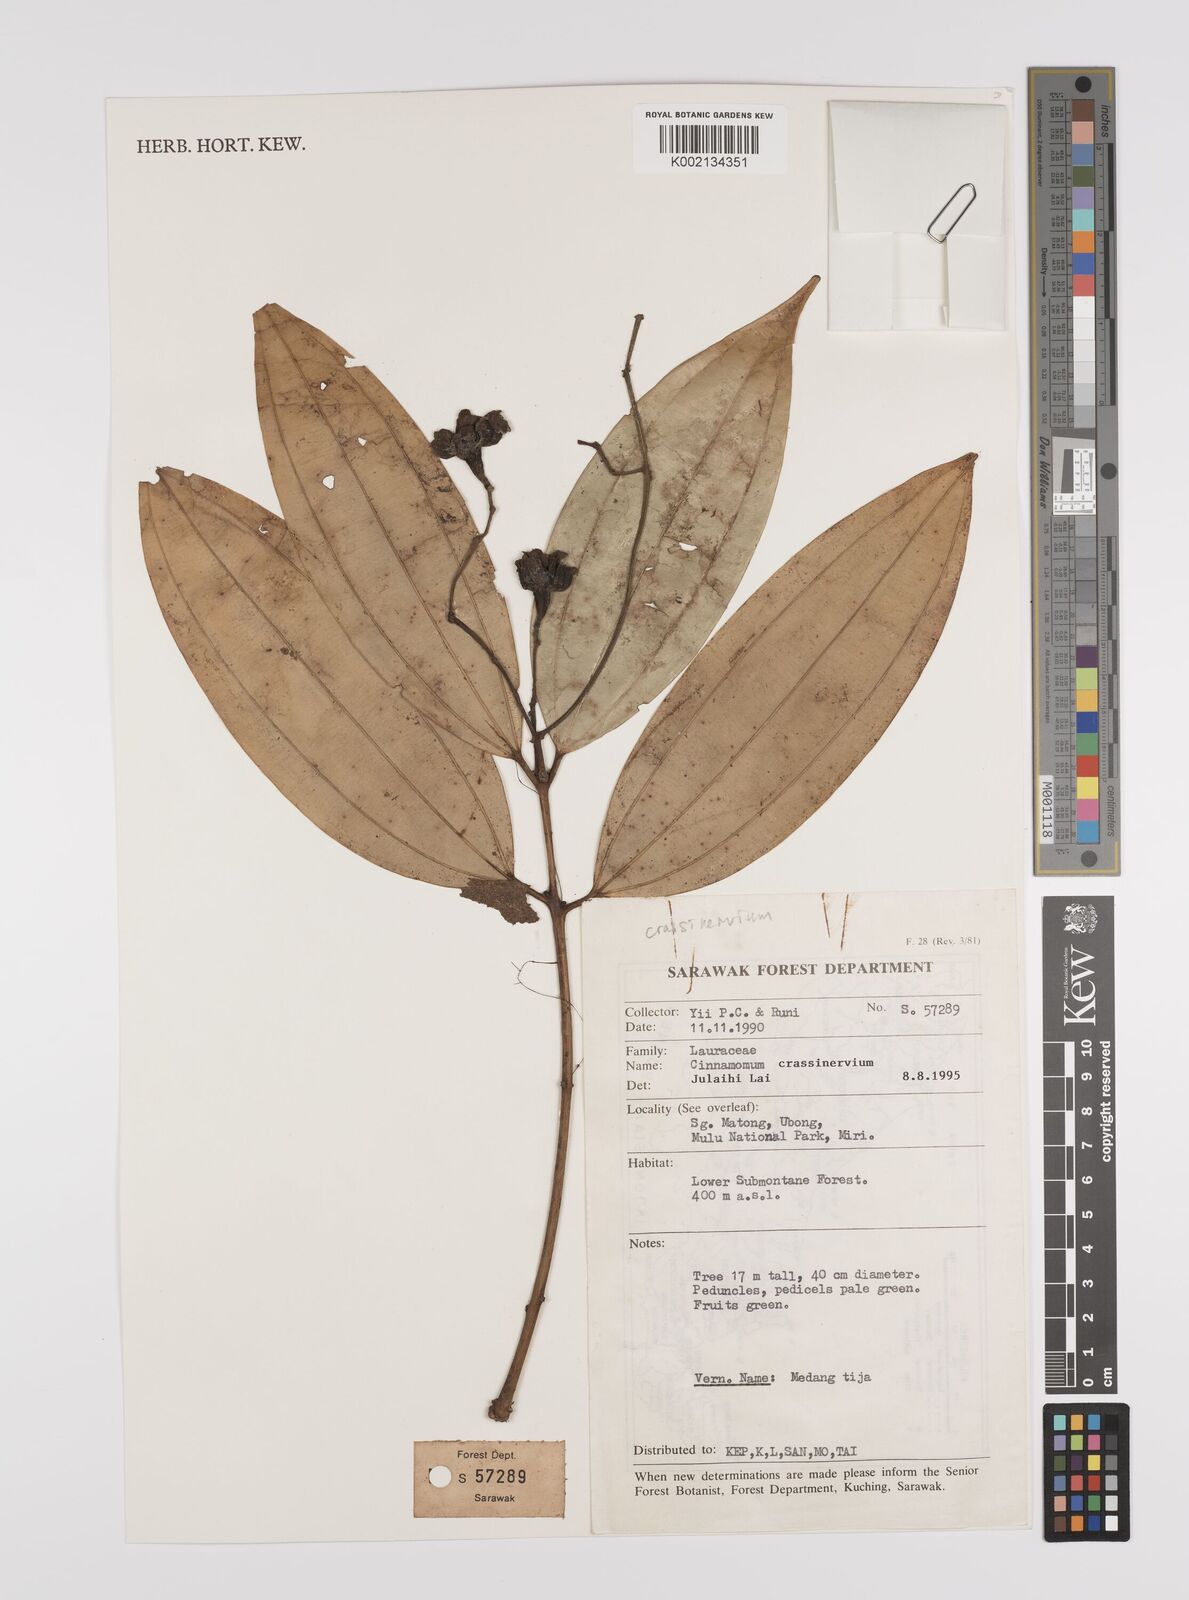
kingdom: Plantae
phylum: Tracheophyta
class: Magnoliopsida
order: Laurales
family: Lauraceae
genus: Cinnamomum
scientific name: Cinnamomum crassinervium
